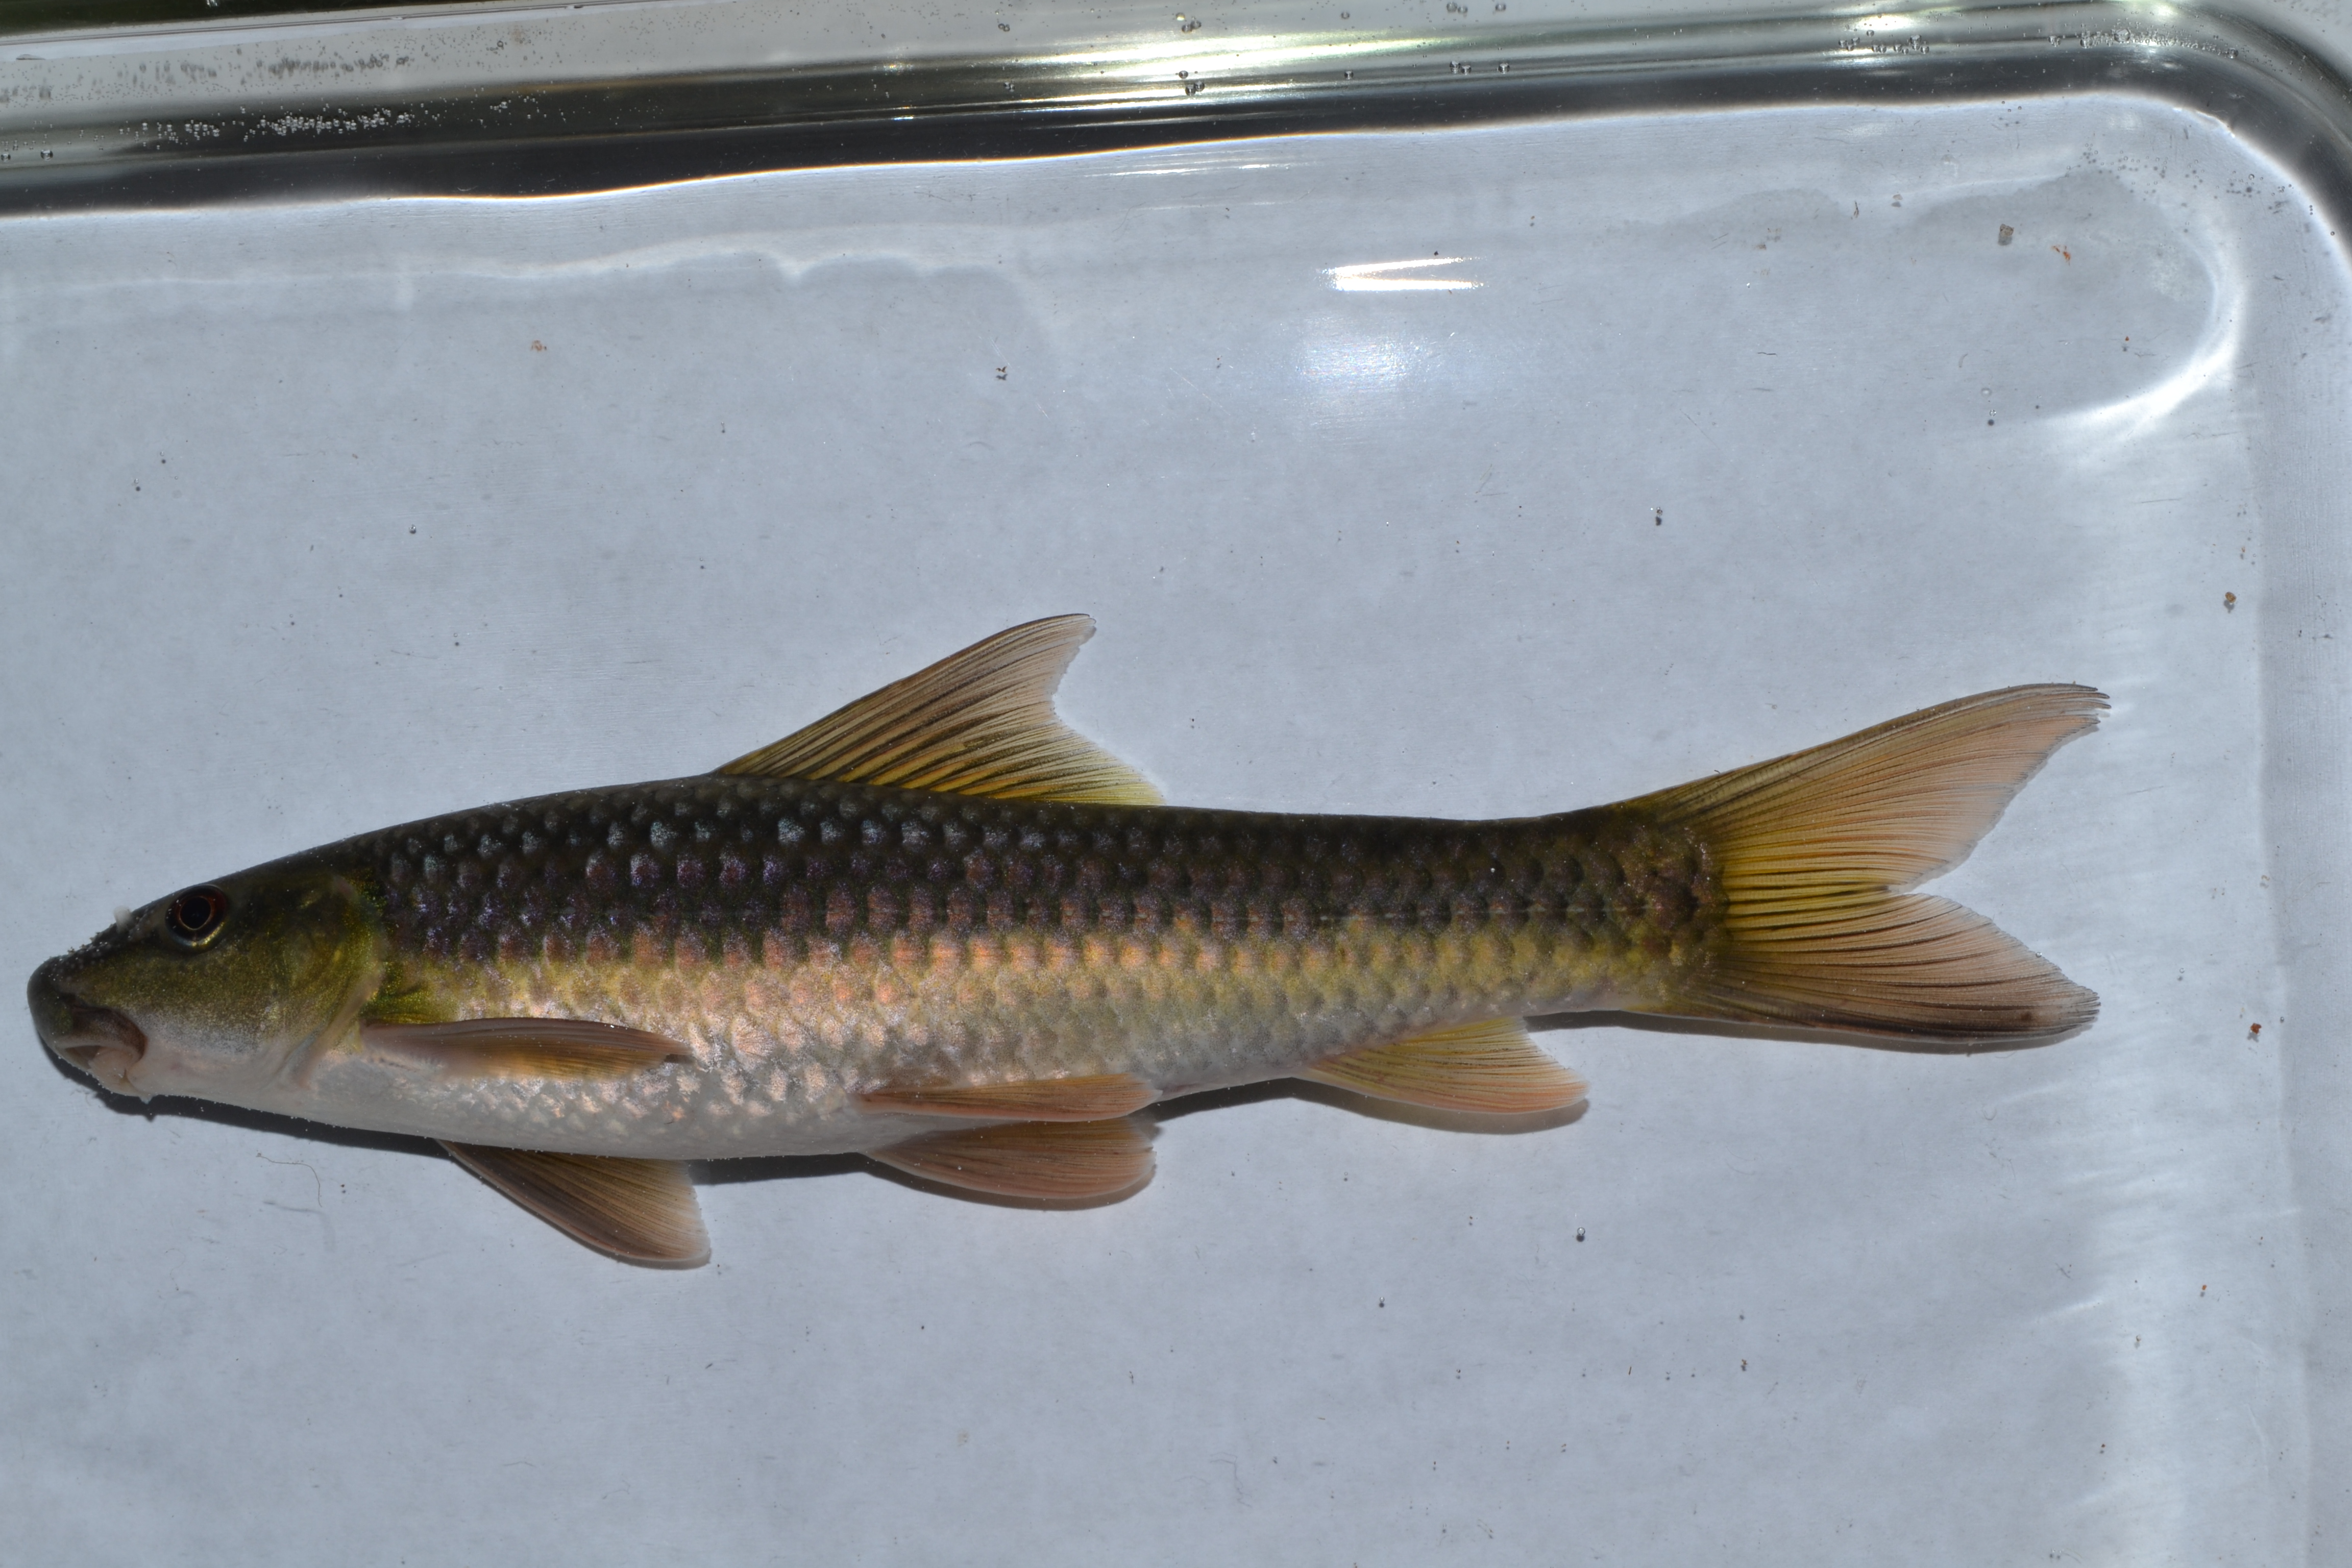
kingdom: Animalia
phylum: Chordata
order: Cypriniformes
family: Cyprinidae
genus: Labeo
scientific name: Labeo cylindricus
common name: Redeye labeo
